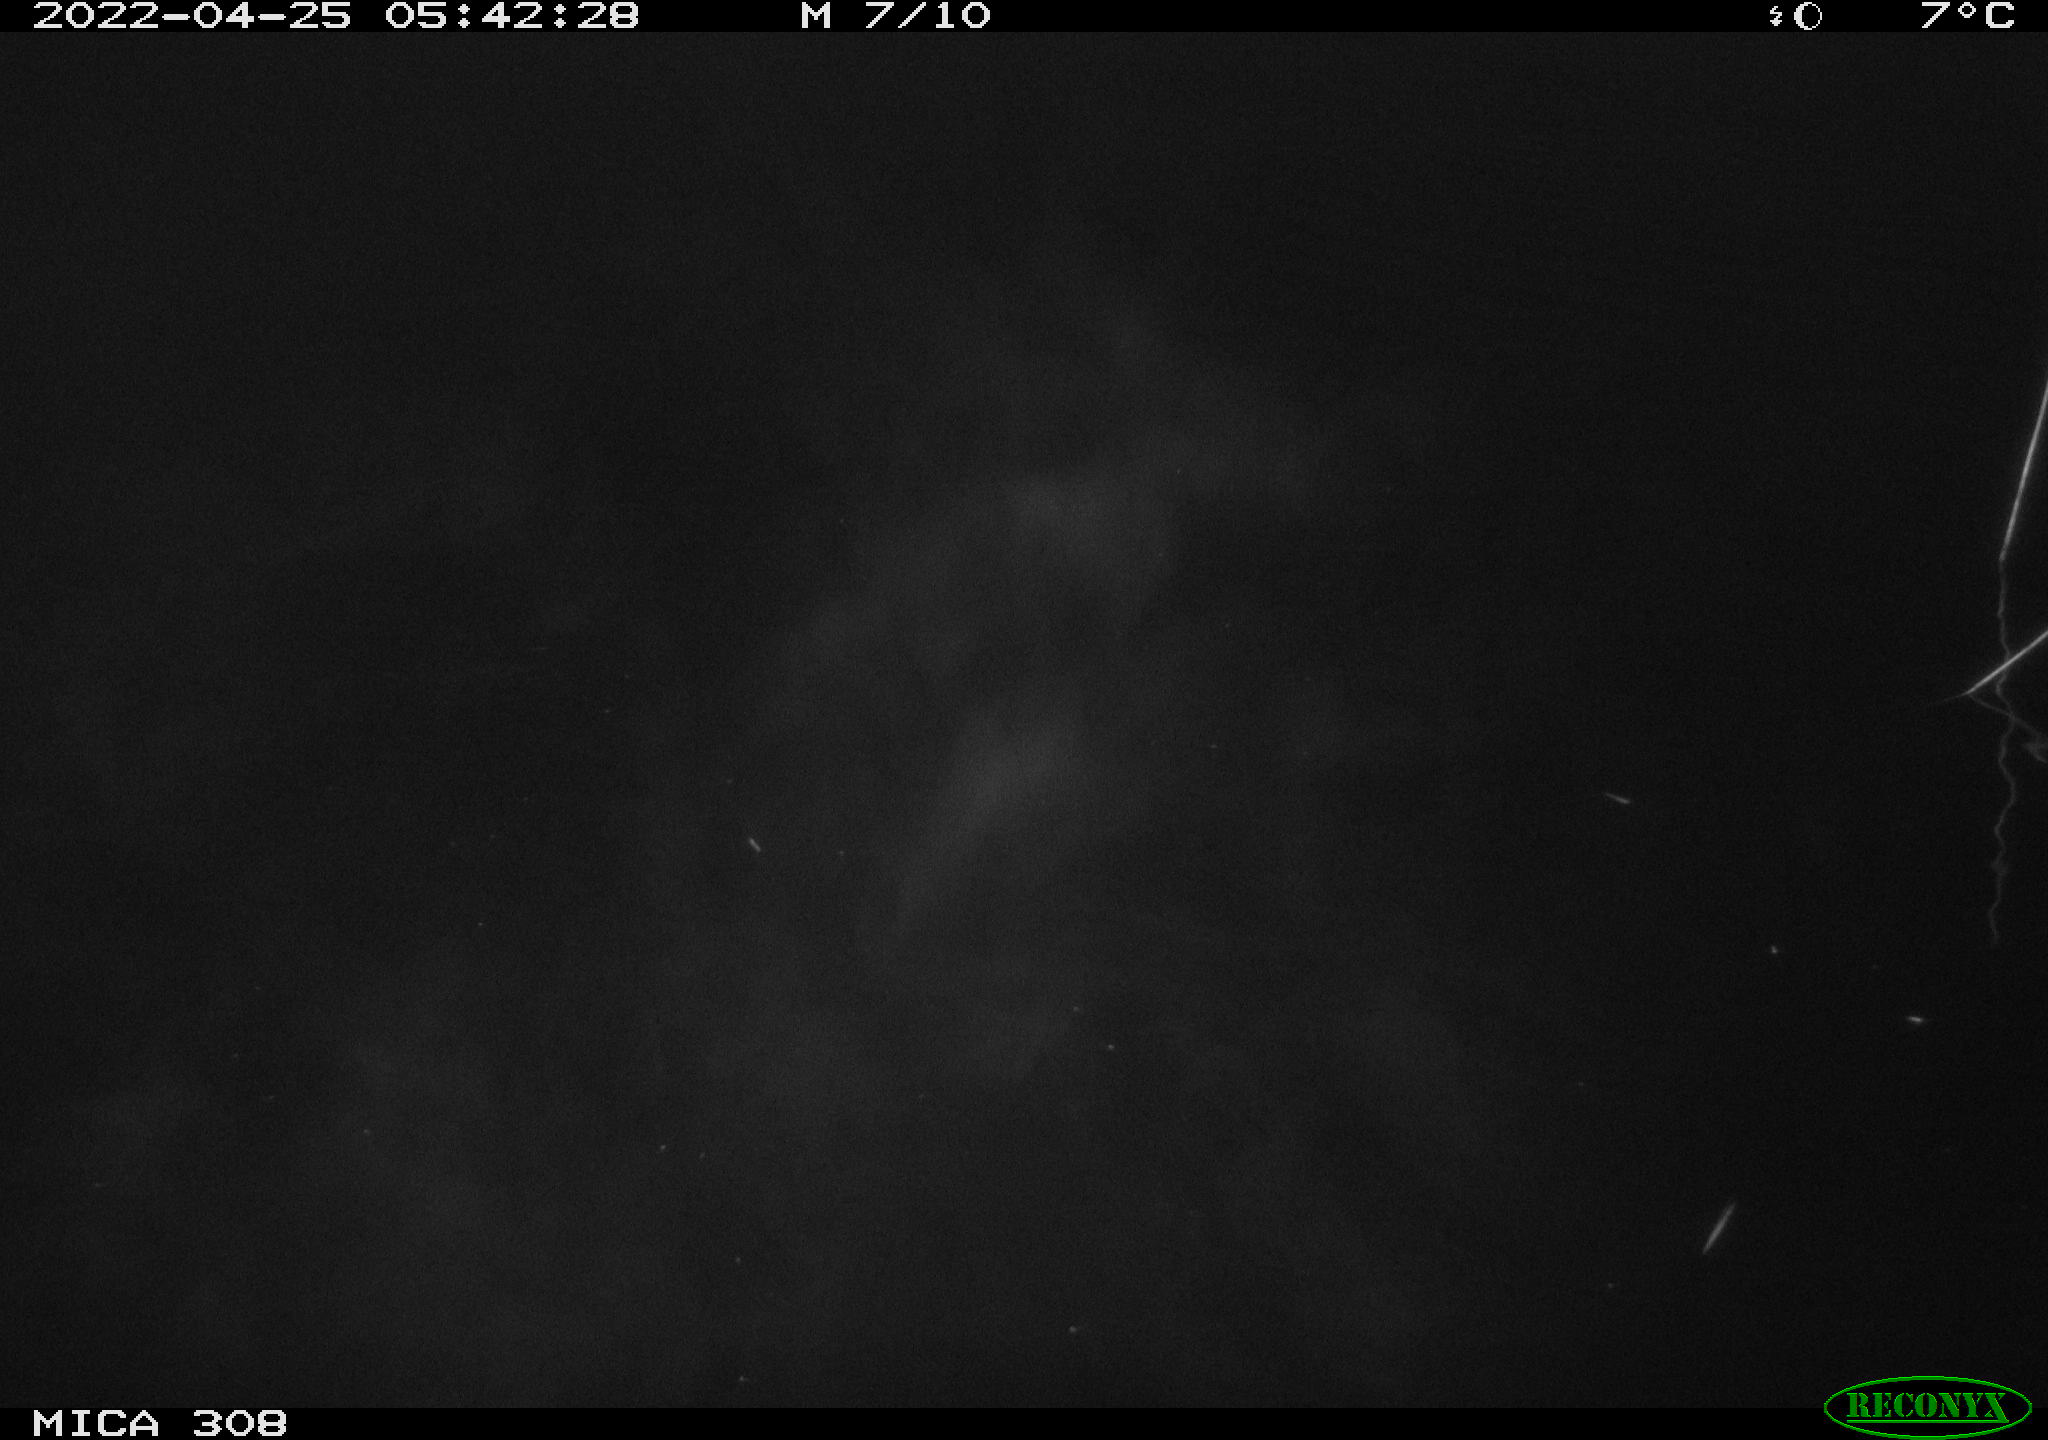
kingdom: Animalia
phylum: Chordata
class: Aves
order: Anseriformes
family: Anatidae
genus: Anas
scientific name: Anas platyrhynchos
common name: Mallard
